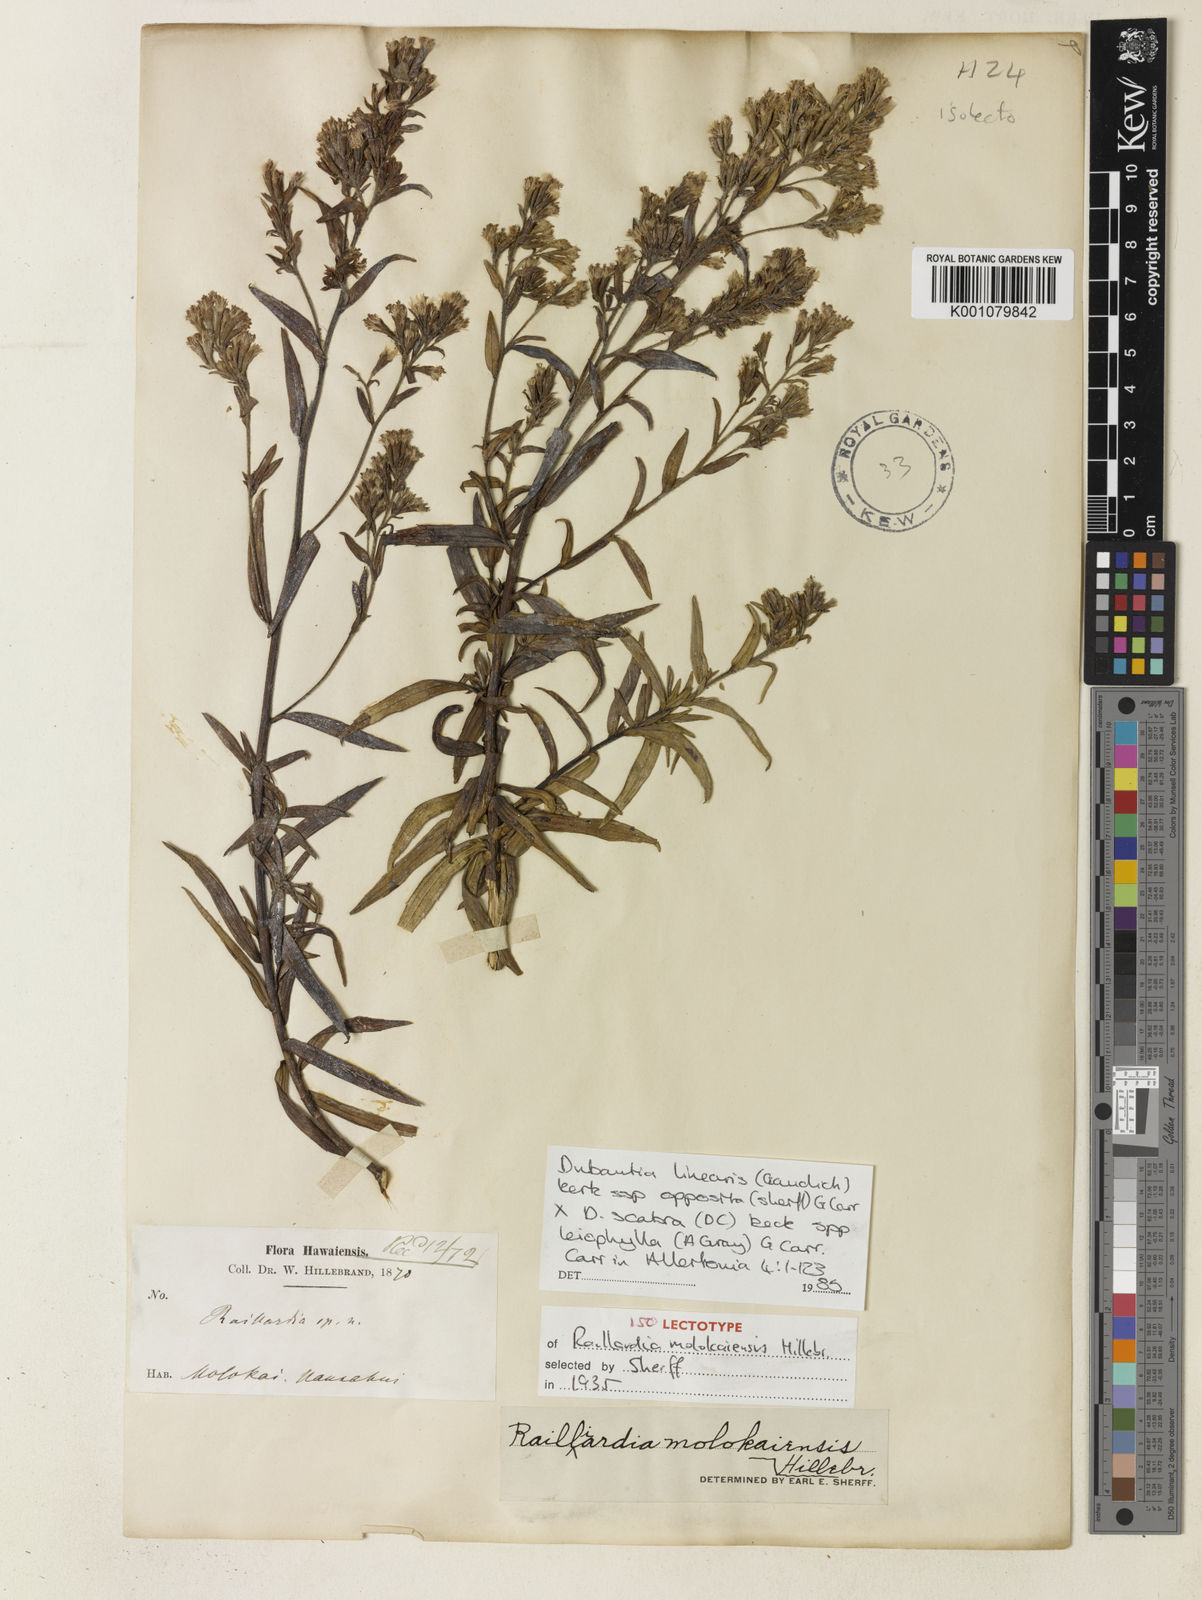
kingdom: Plantae
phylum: Tracheophyta
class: Magnoliopsida
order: Asterales
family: Asteraceae
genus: Dubautia
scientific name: Dubautia carrii
